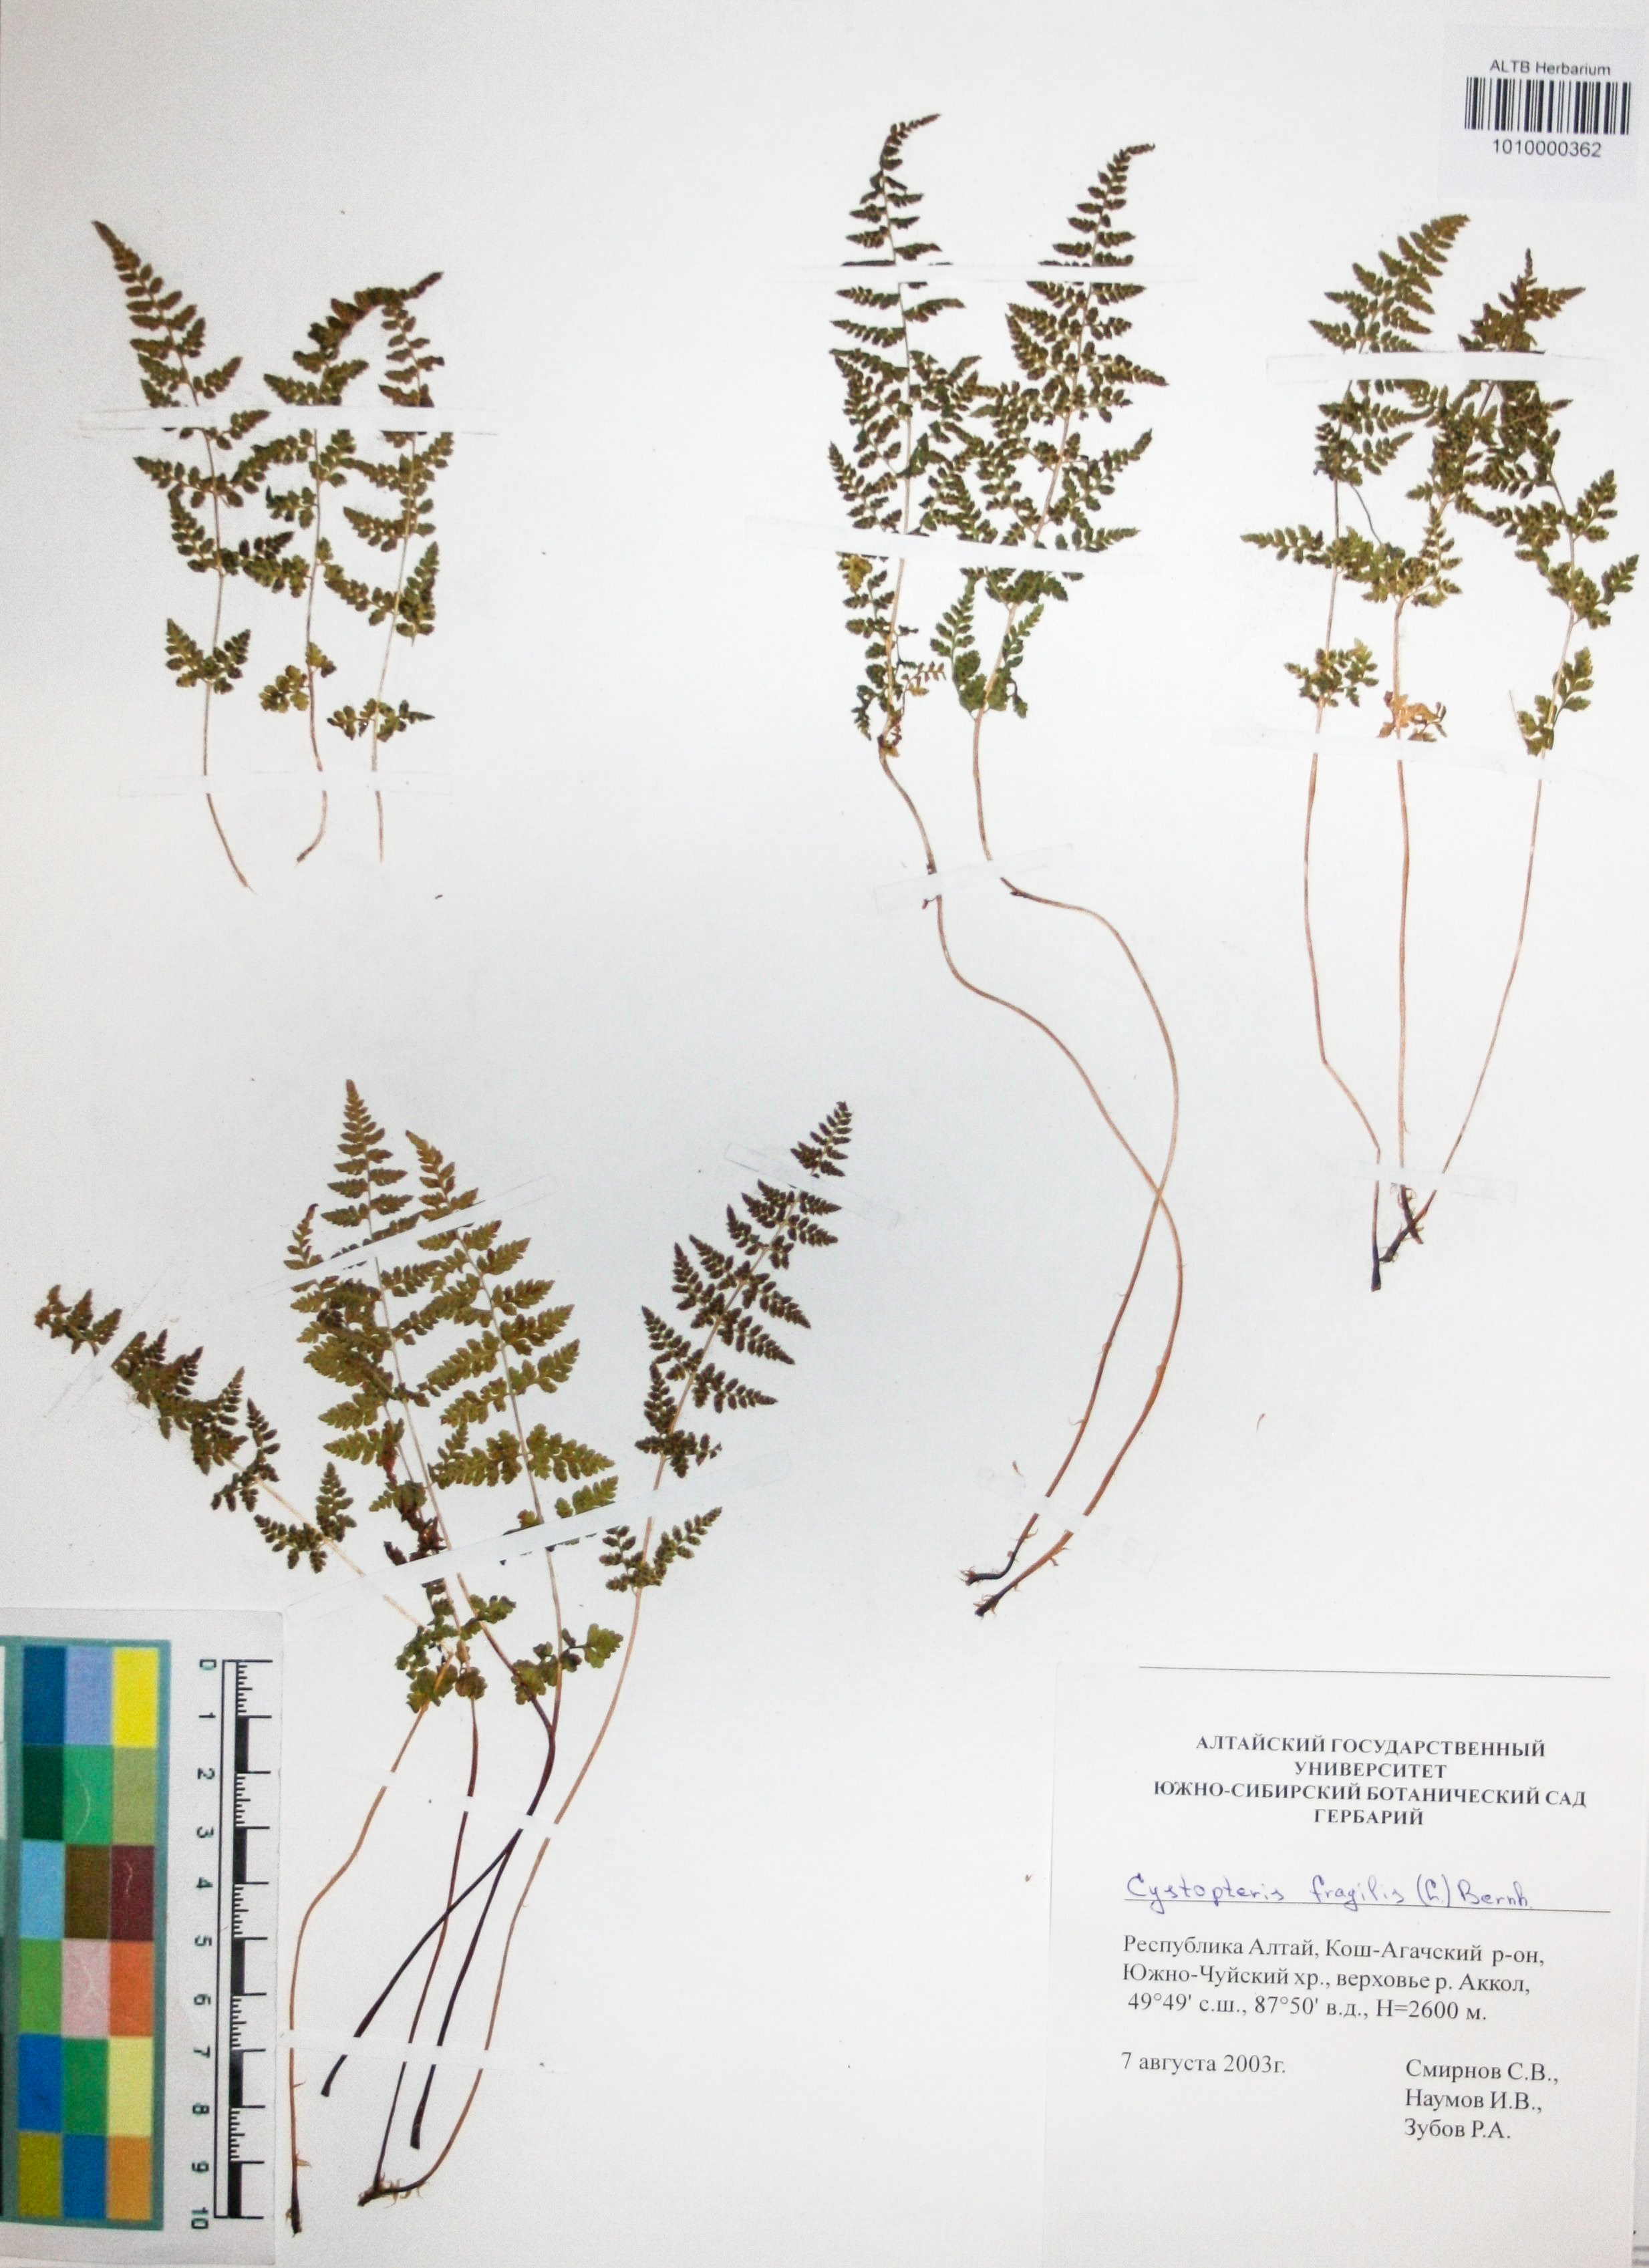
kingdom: Plantae
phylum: Tracheophyta
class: Polypodiopsida
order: Polypodiales
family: Cystopteridaceae
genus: Cystopteris
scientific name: Cystopteris fragilis
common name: Brittle bladder fern
